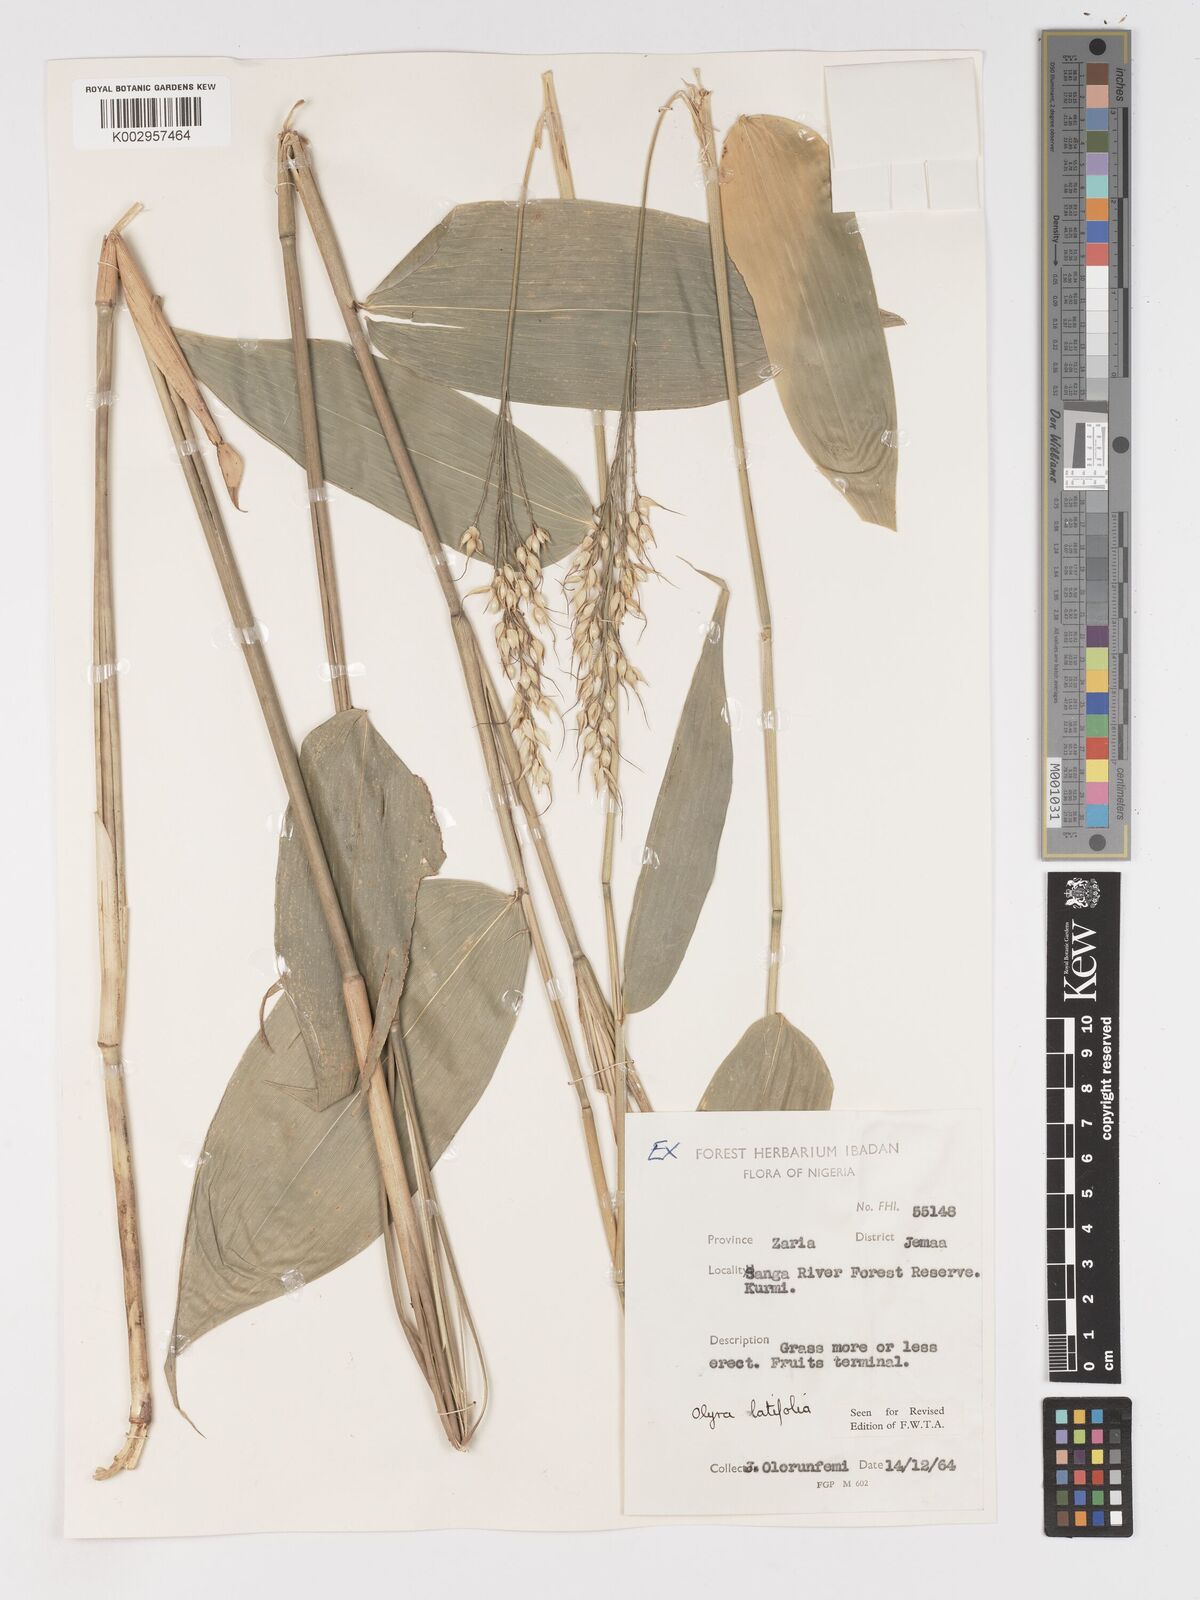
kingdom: Plantae
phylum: Tracheophyta
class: Liliopsida
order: Poales
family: Poaceae
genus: Olyra
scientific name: Olyra latifolia
